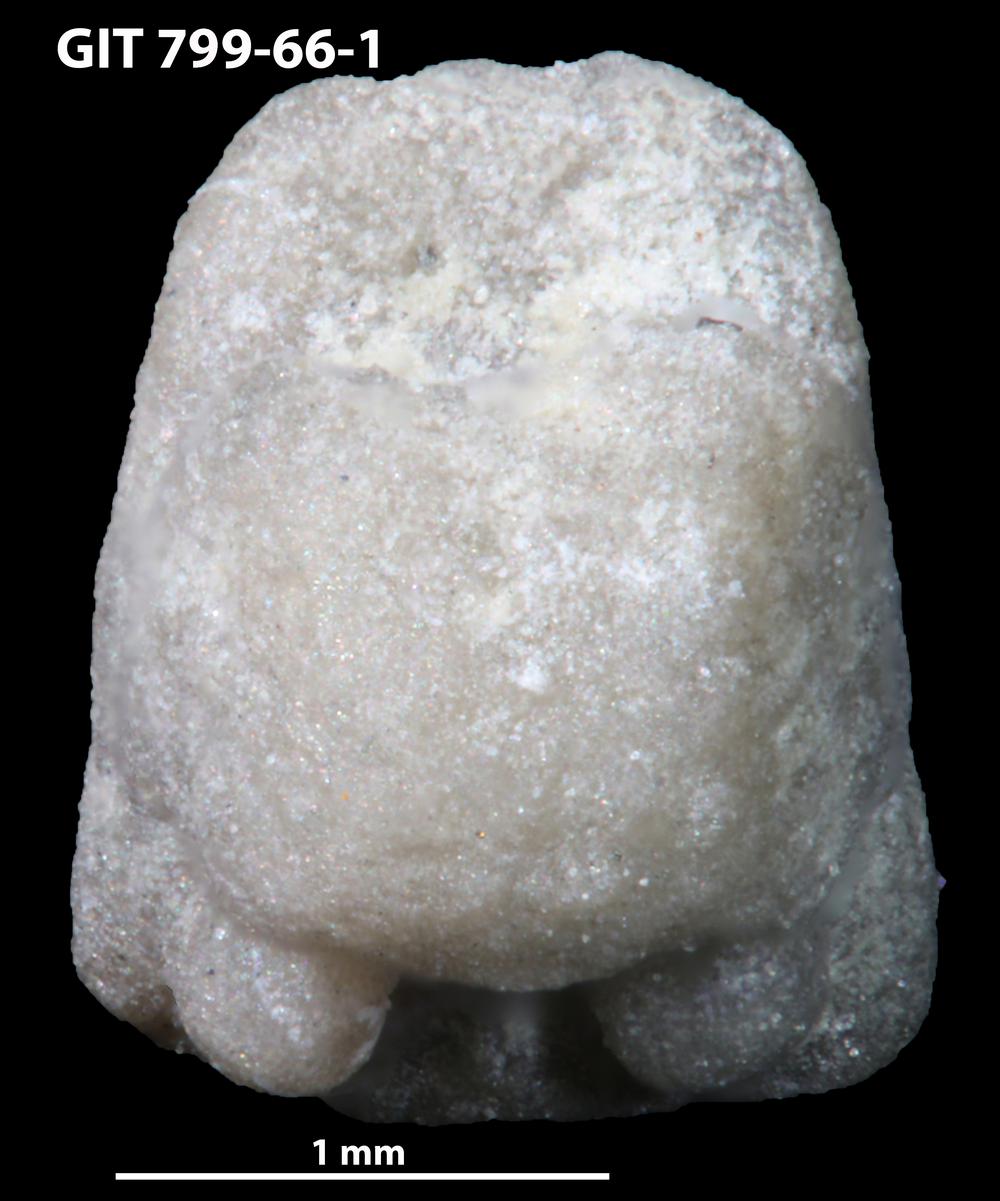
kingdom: Animalia
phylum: Echinodermata
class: Crinoidea
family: Cyclocystoididae
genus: Polytryphocycloides
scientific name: Polytryphocycloides
